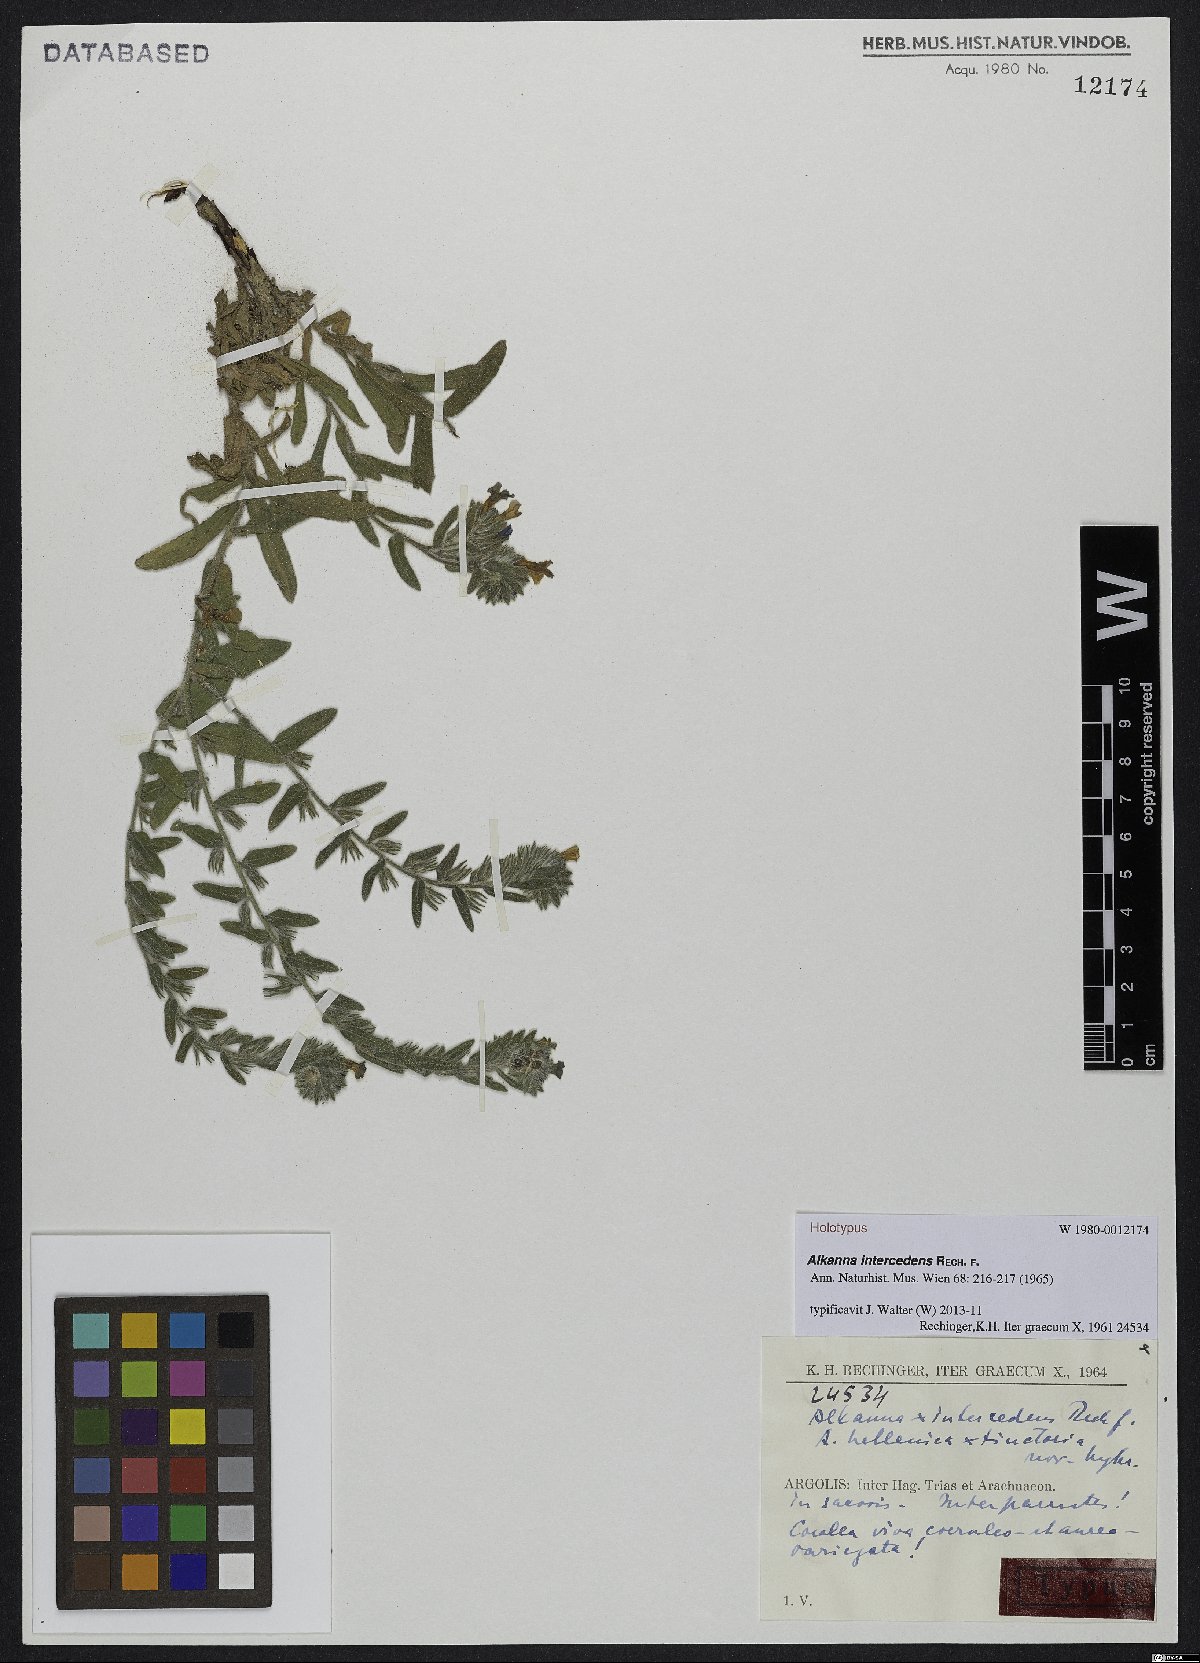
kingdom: Plantae
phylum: Tracheophyta
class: Magnoliopsida
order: Boraginales
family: Boraginaceae
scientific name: Boraginaceae
